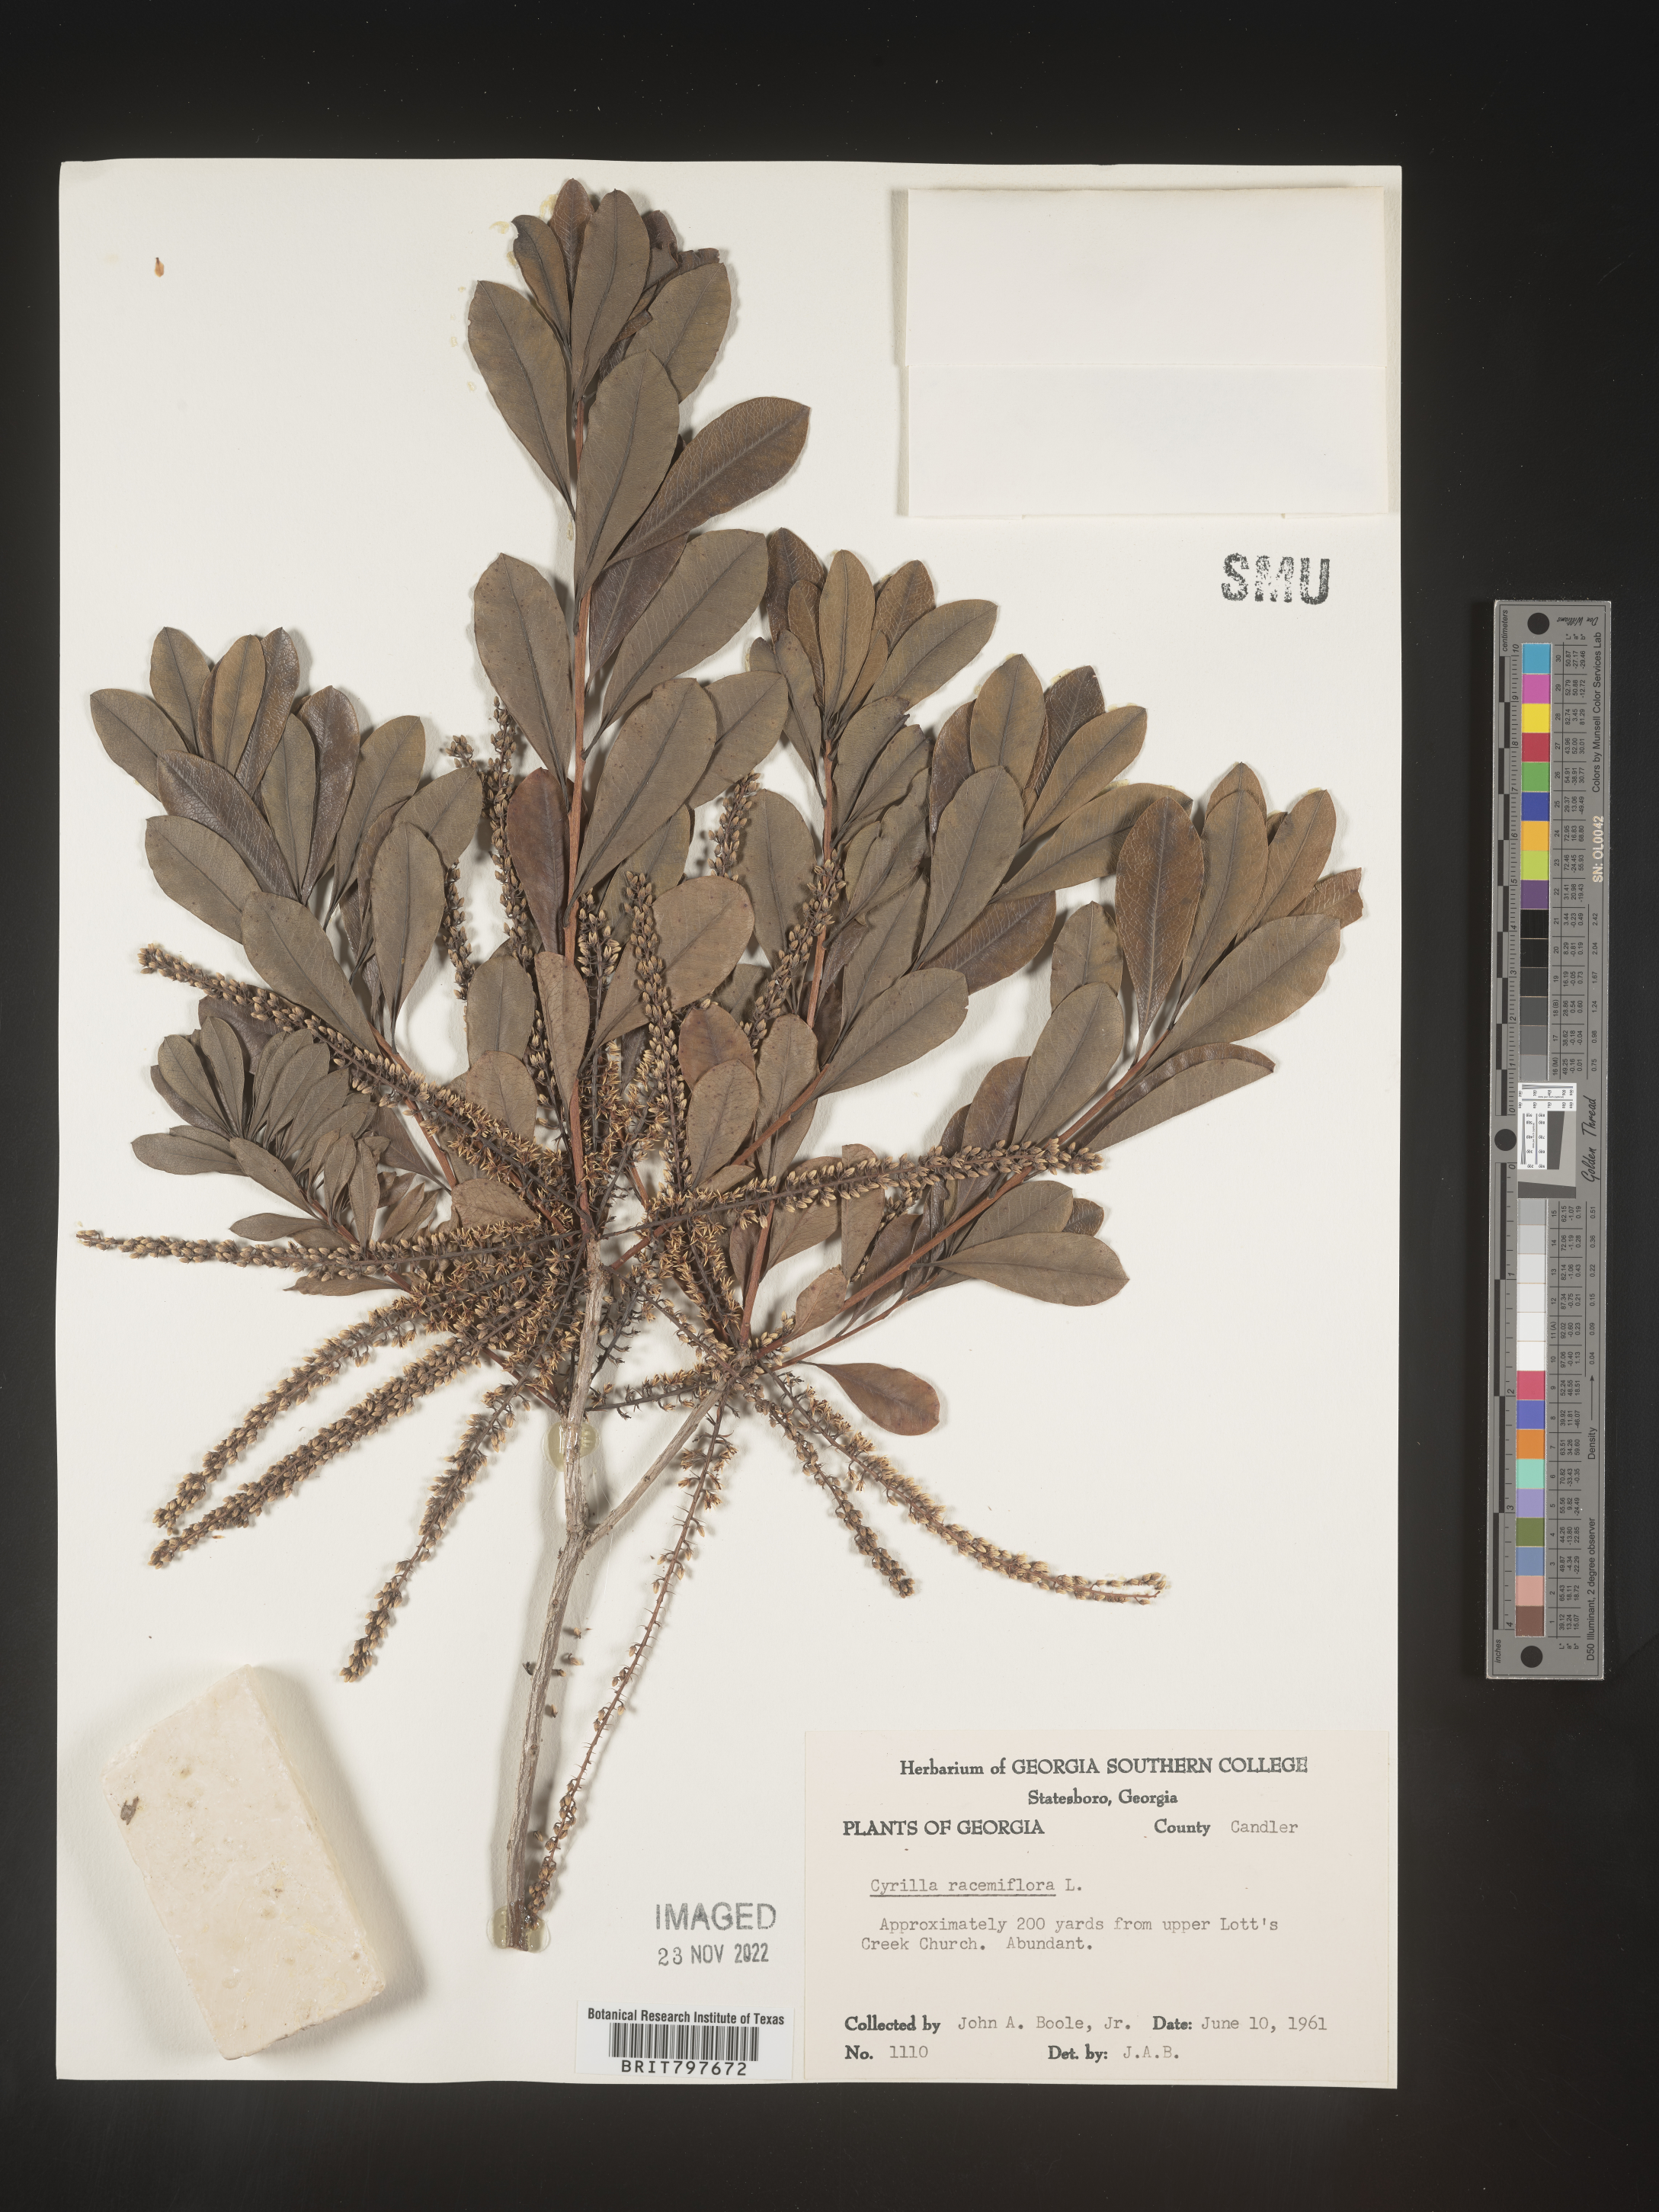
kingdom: Plantae
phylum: Tracheophyta
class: Magnoliopsida
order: Ericales
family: Cyrillaceae
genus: Cyrilla
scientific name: Cyrilla racemiflora
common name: Black titi
